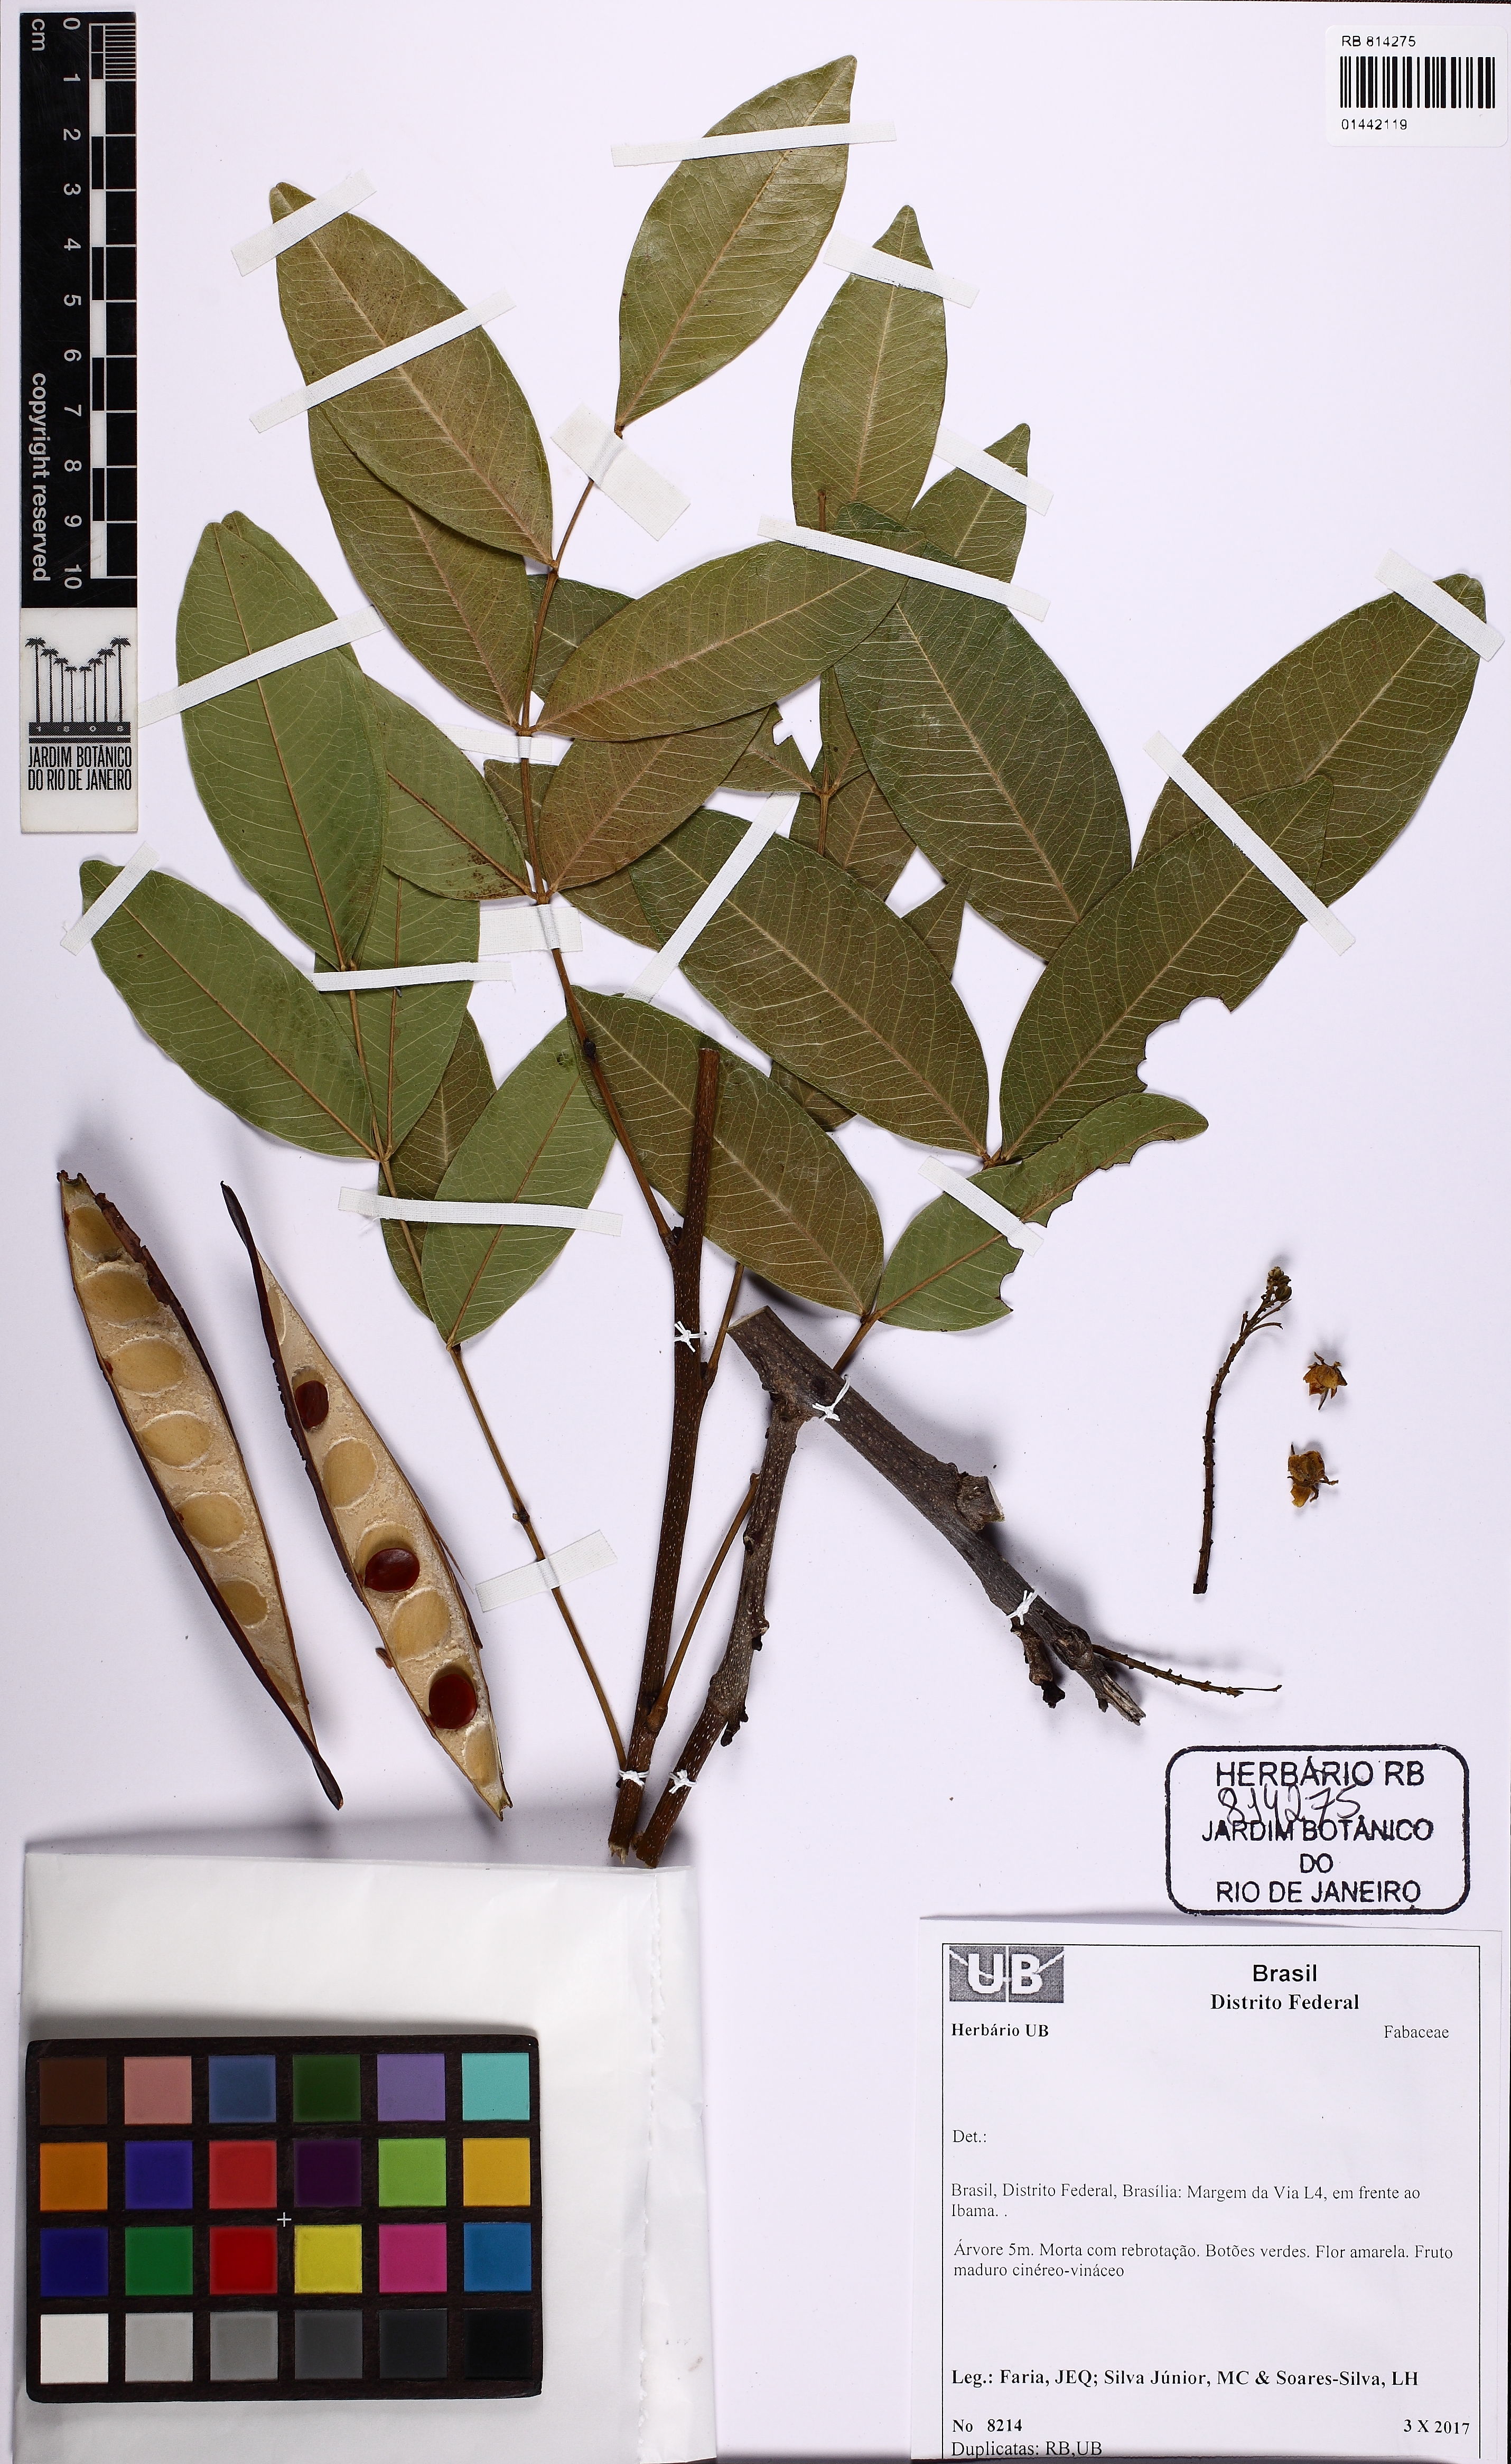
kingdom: Plantae
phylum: Tracheophyta
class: Magnoliopsida
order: Fabales
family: Fabaceae
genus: Senna
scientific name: Senna
